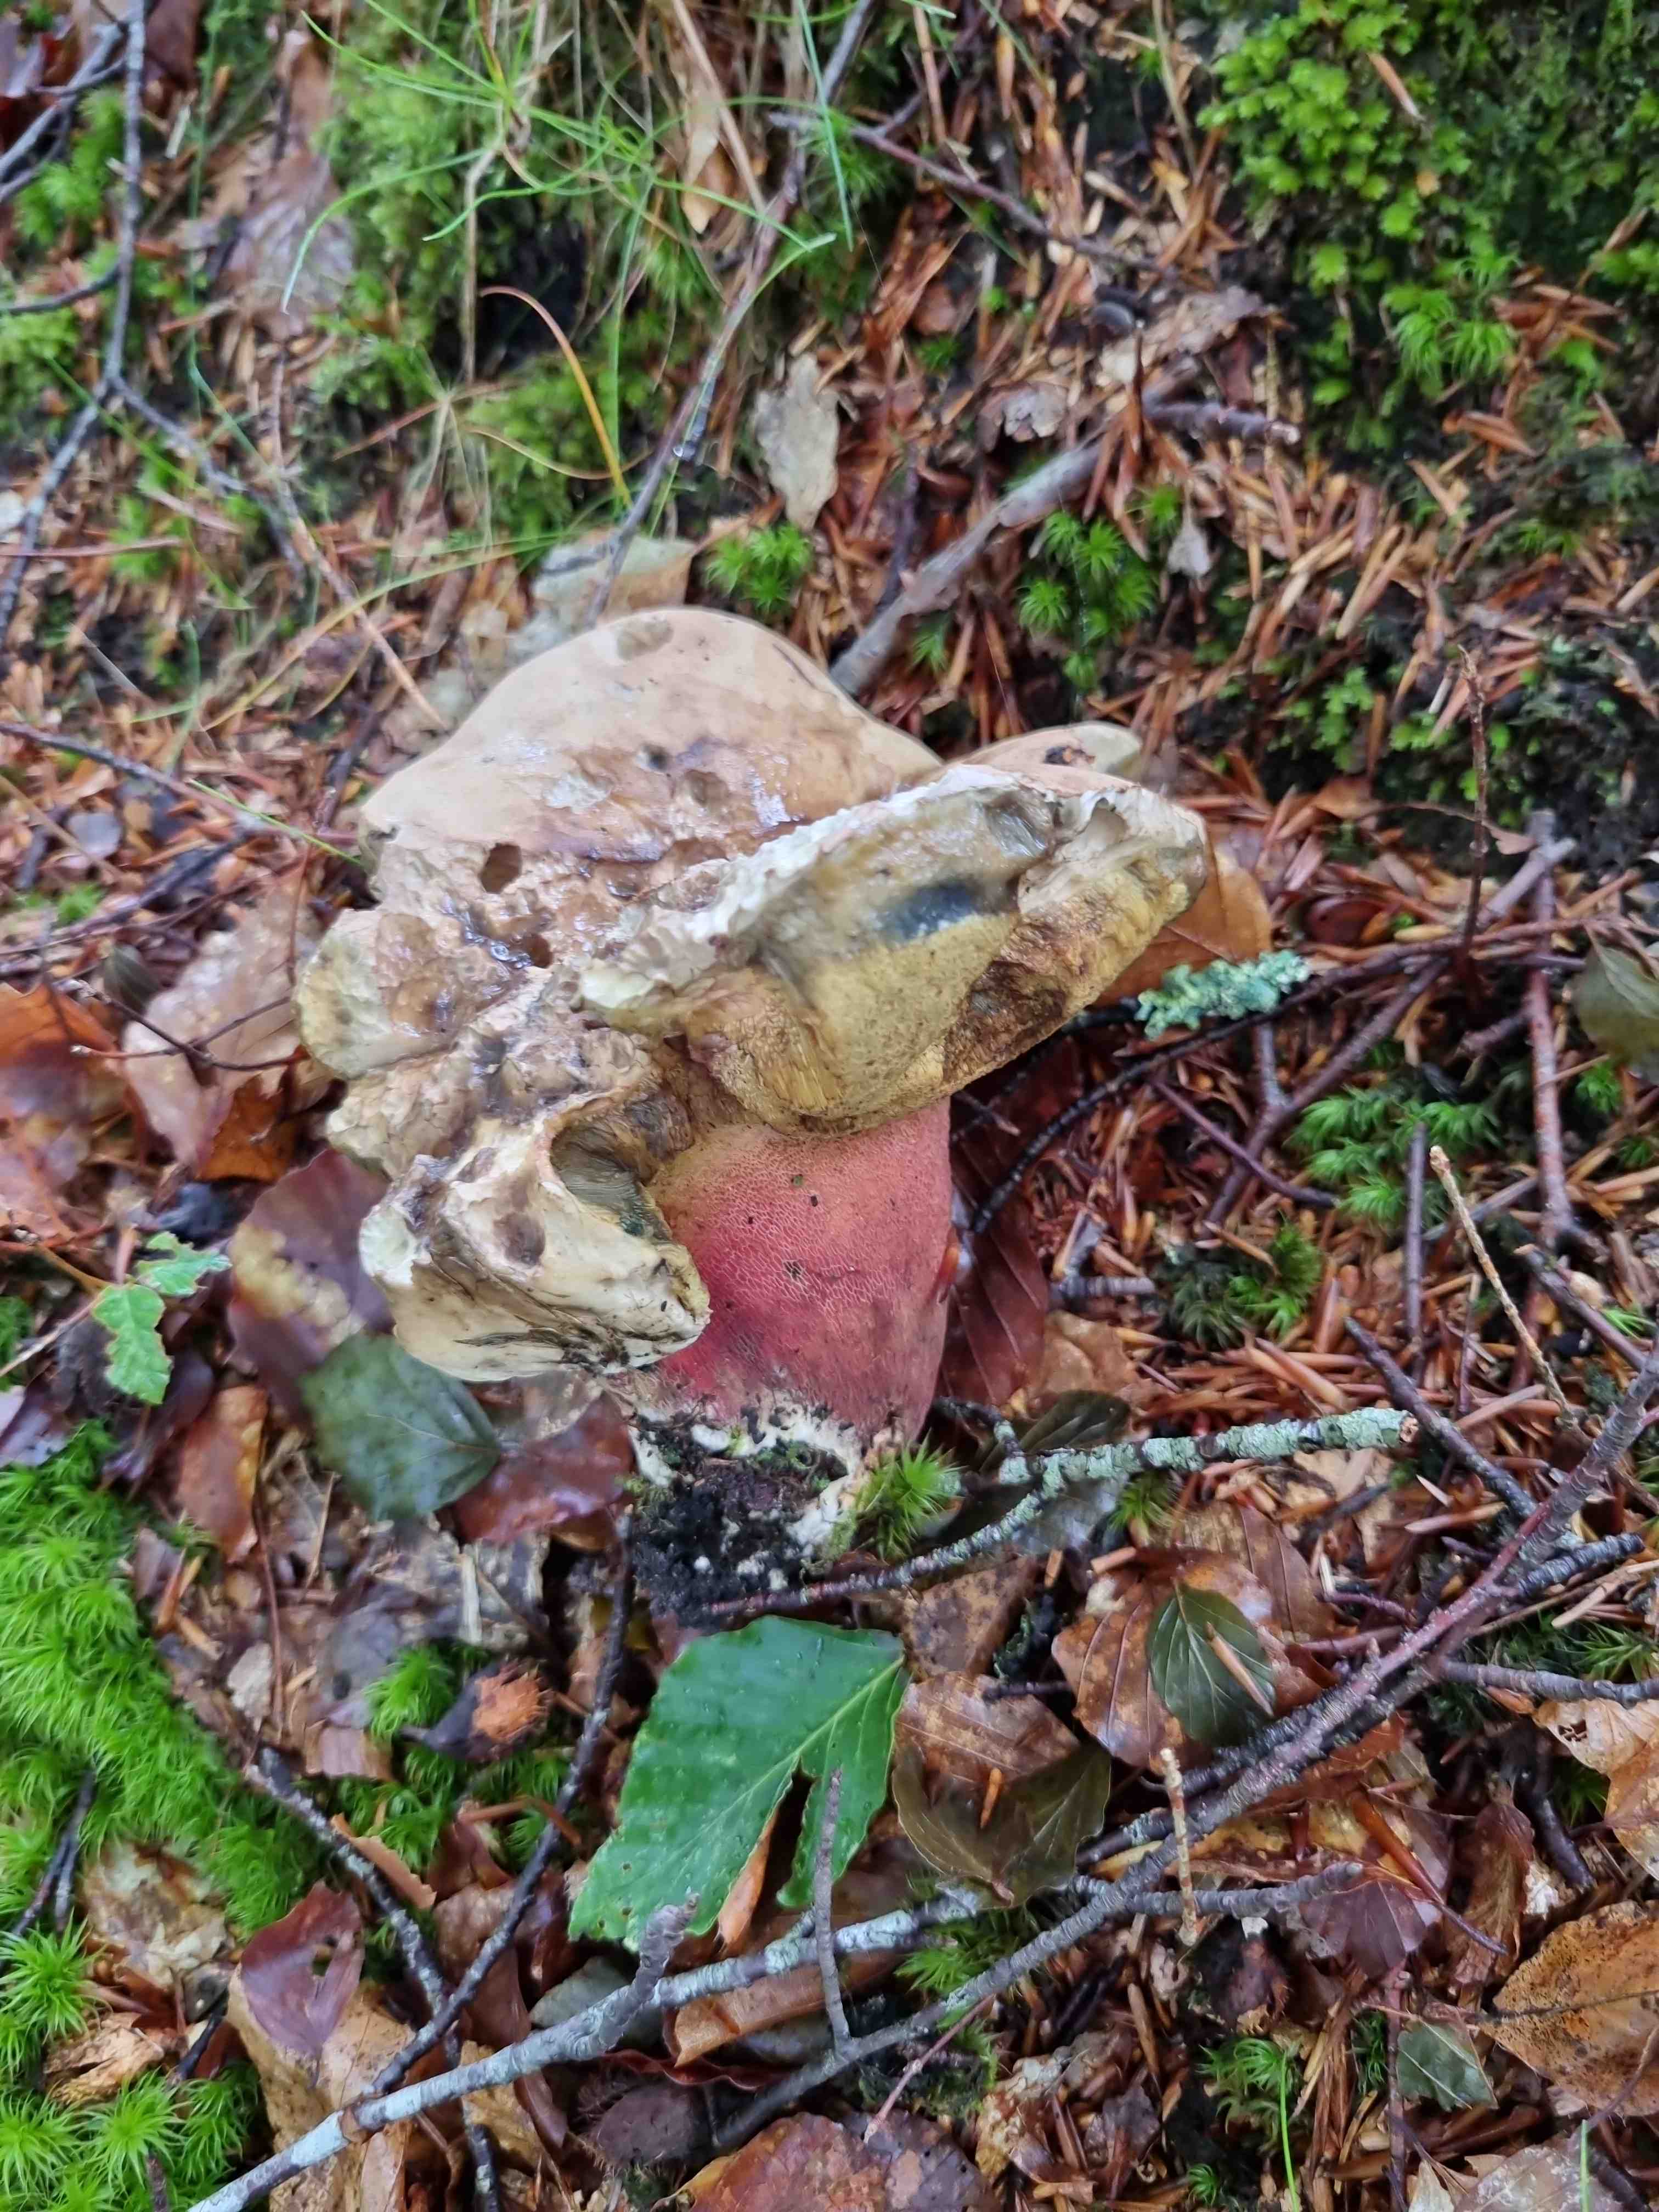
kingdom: Fungi
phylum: Basidiomycota
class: Agaricomycetes
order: Boletales
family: Boletaceae
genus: Caloboletus
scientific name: Caloboletus calopus
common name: skønfodet rørhat
